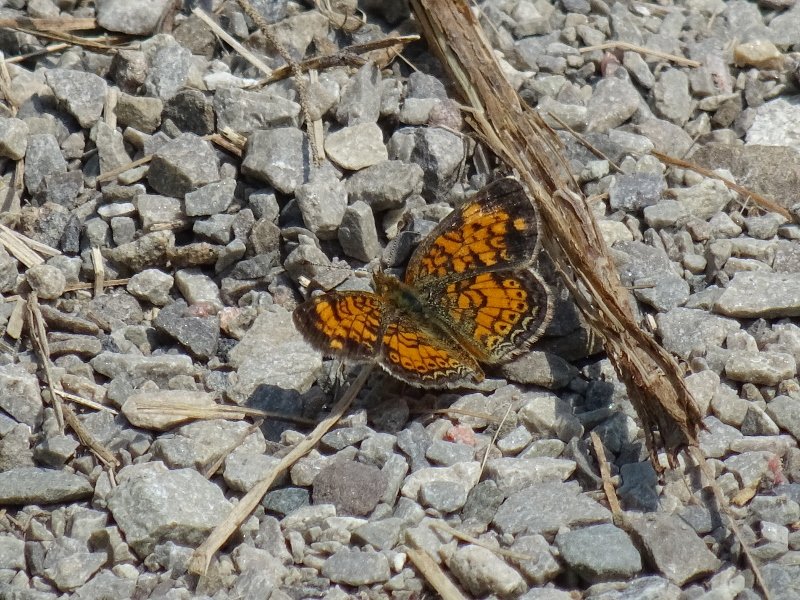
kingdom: Animalia
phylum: Arthropoda
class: Insecta
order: Lepidoptera
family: Nymphalidae
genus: Phyciodes
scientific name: Phyciodes tharos
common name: Pearl Crescent
